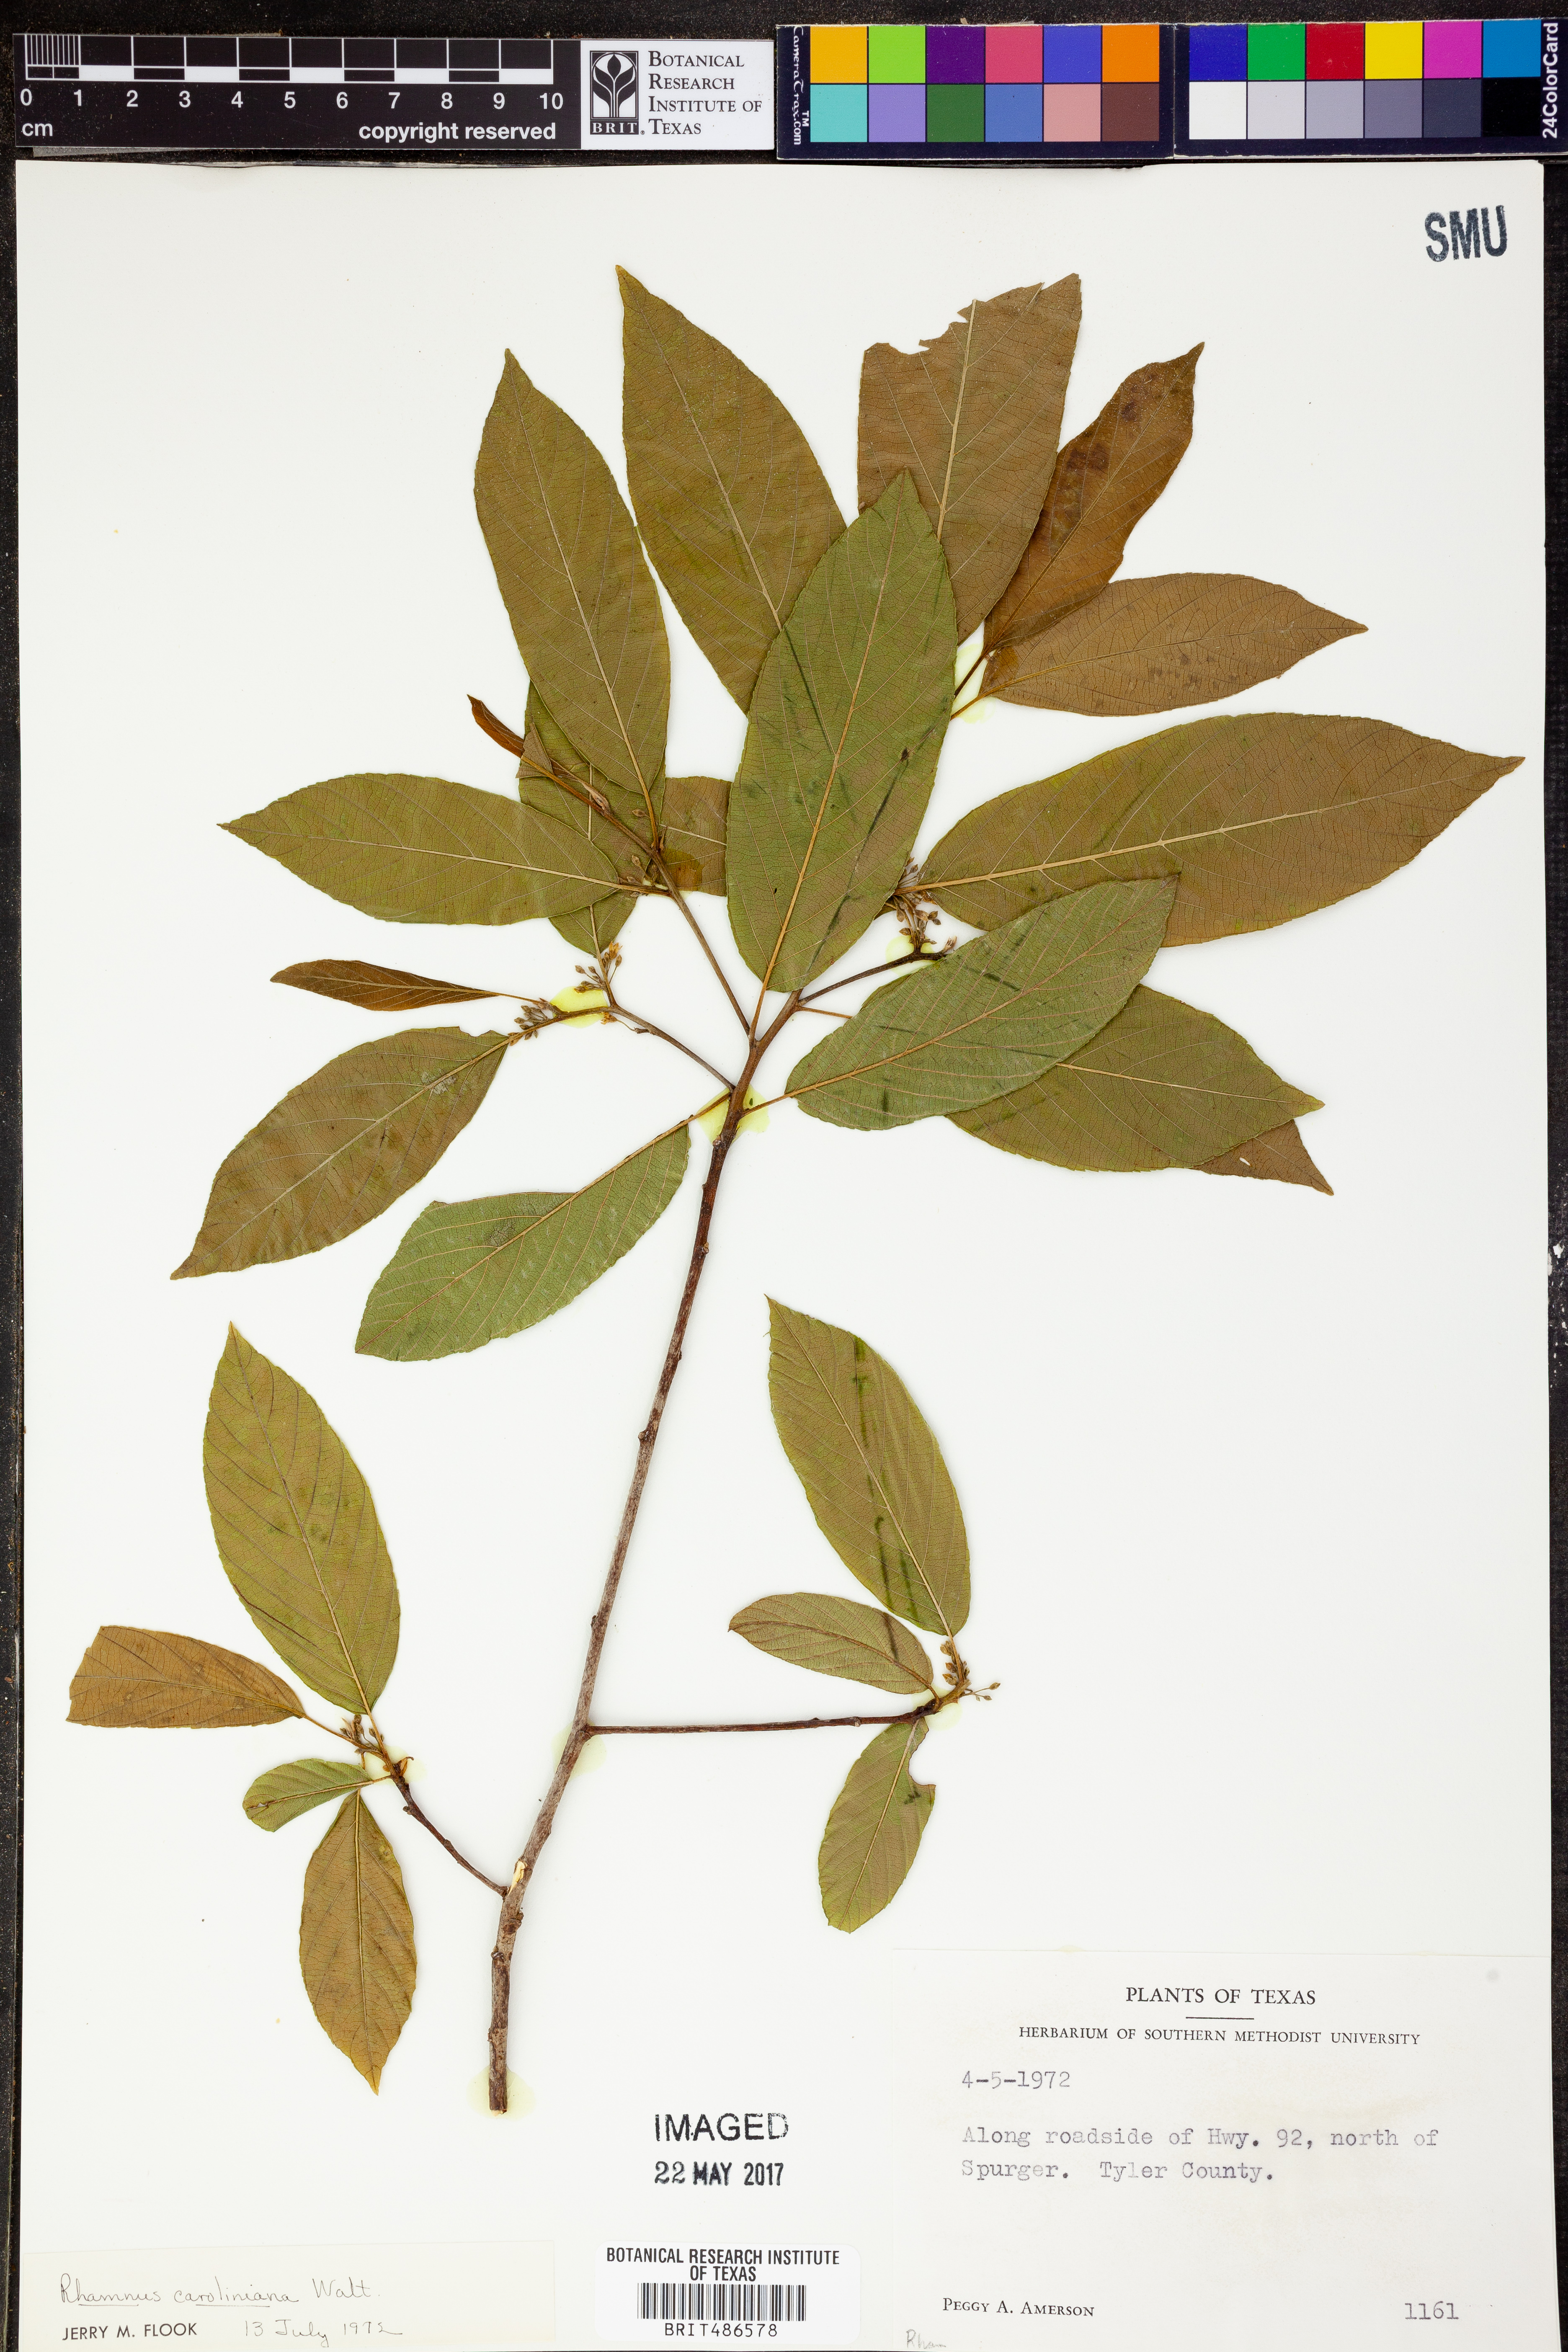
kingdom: Plantae
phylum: Tracheophyta
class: Magnoliopsida
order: Rosales
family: Rhamnaceae
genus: Frangula
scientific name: Frangula caroliniana
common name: Carolina buckthorn
